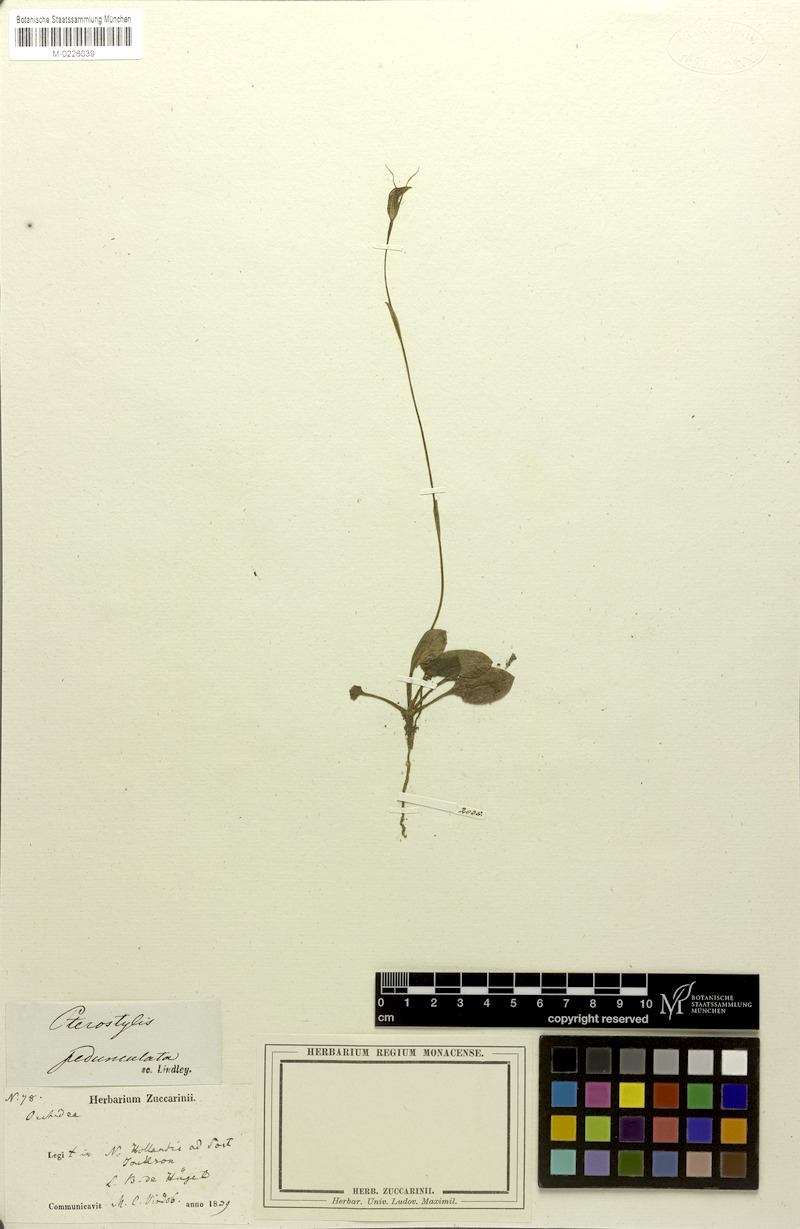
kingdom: Plantae
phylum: Tracheophyta
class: Liliopsida
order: Asparagales
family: Orchidaceae
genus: Pterostylis
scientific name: Pterostylis pedunculata
